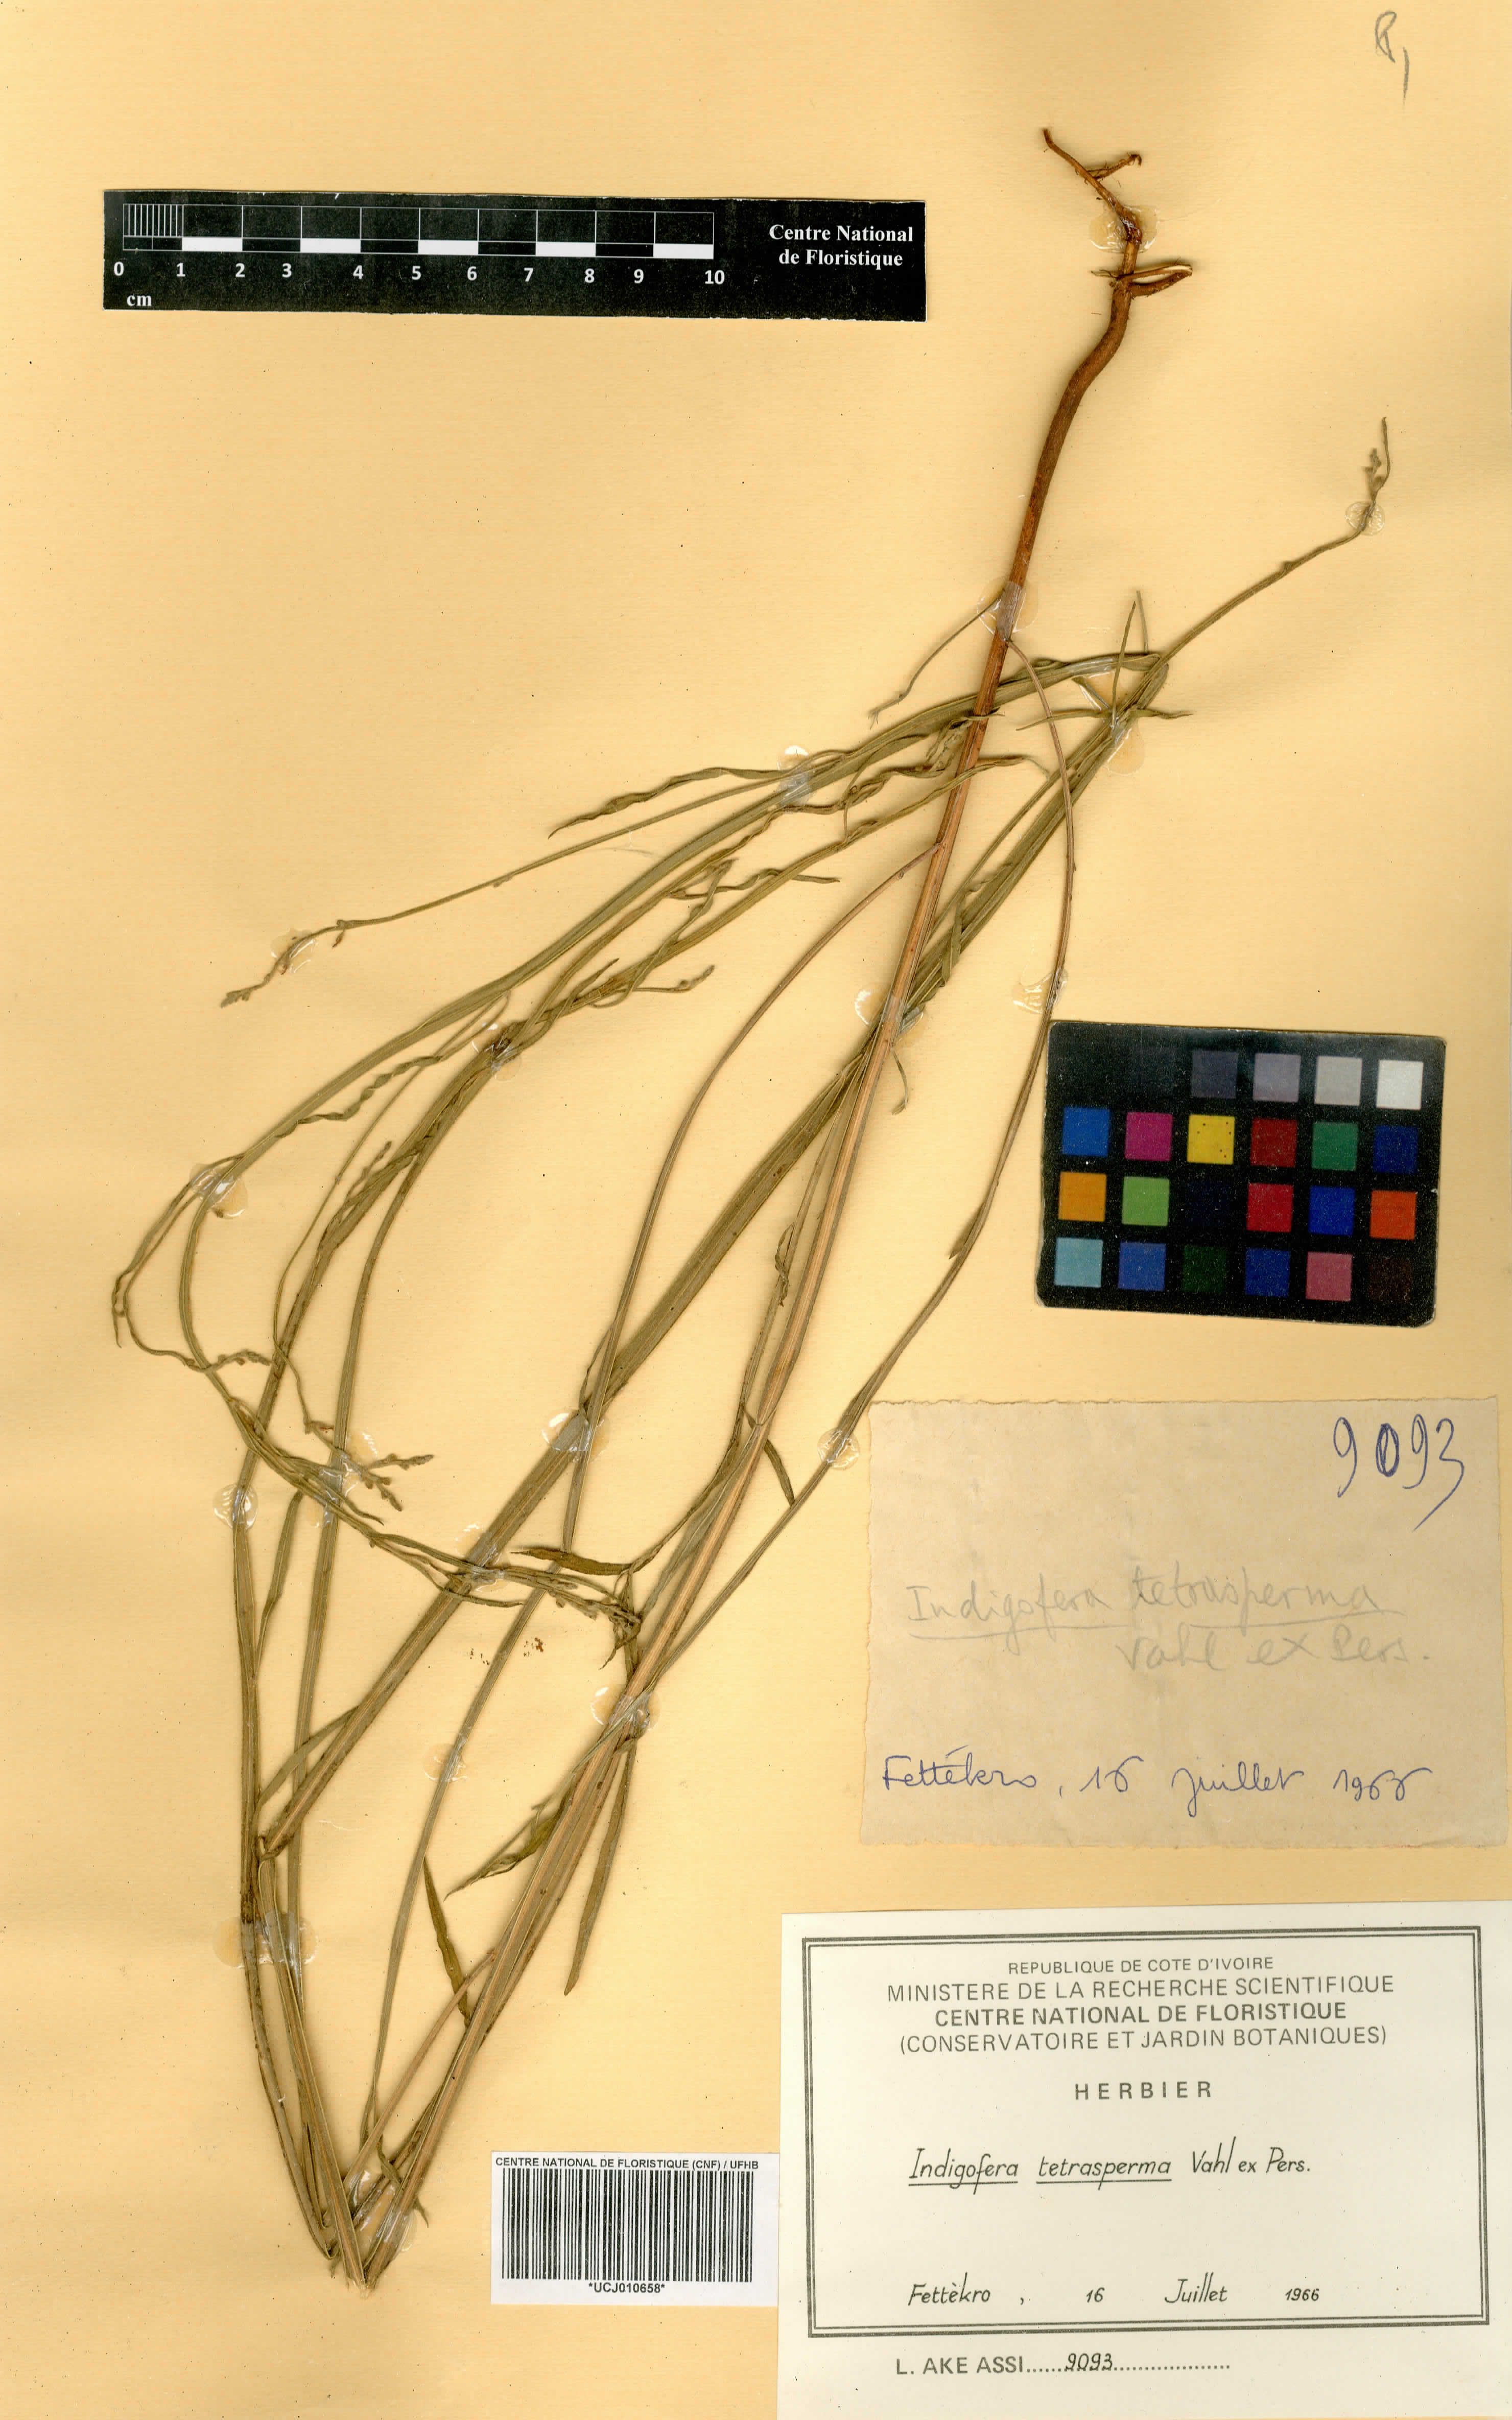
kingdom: Plantae
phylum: Tracheophyta
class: Magnoliopsida
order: Fabales
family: Fabaceae
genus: Indigofera
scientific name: Indigofera tetrasperma
